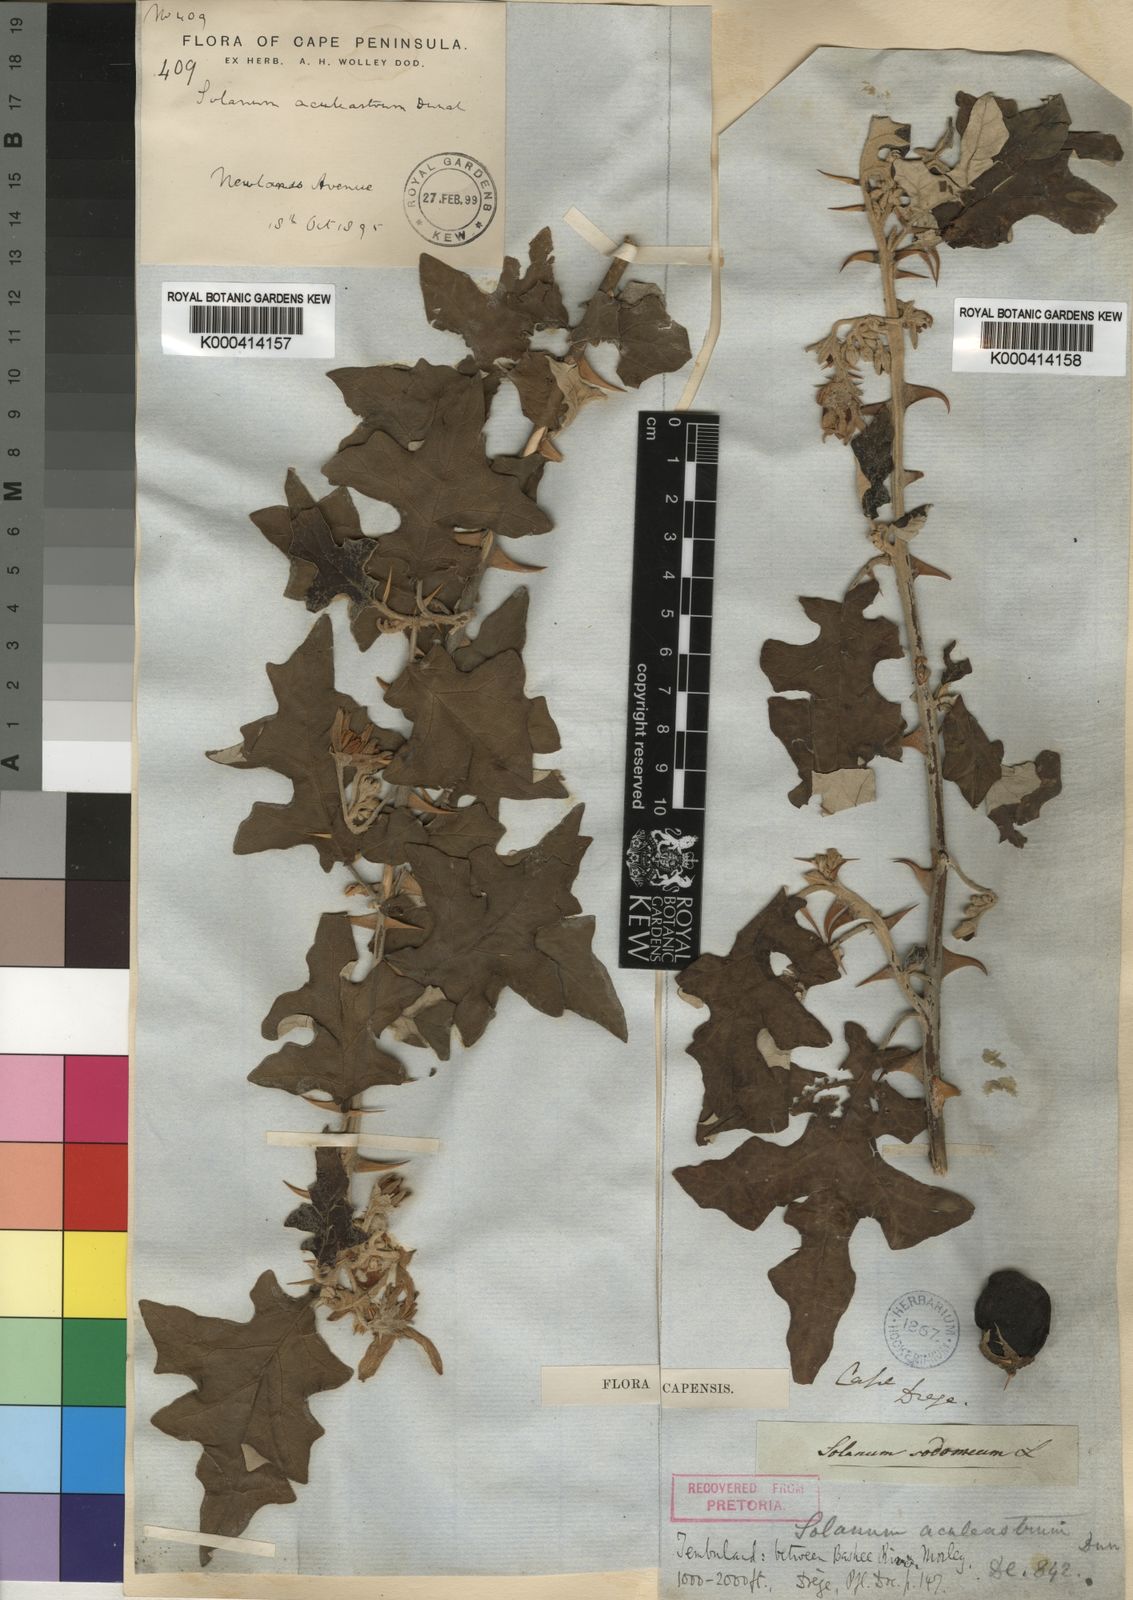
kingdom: Plantae
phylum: Tracheophyta
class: Magnoliopsida
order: Solanales
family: Solanaceae
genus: Solanum
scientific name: Solanum aculeastrum
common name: Goat bitter-apple
